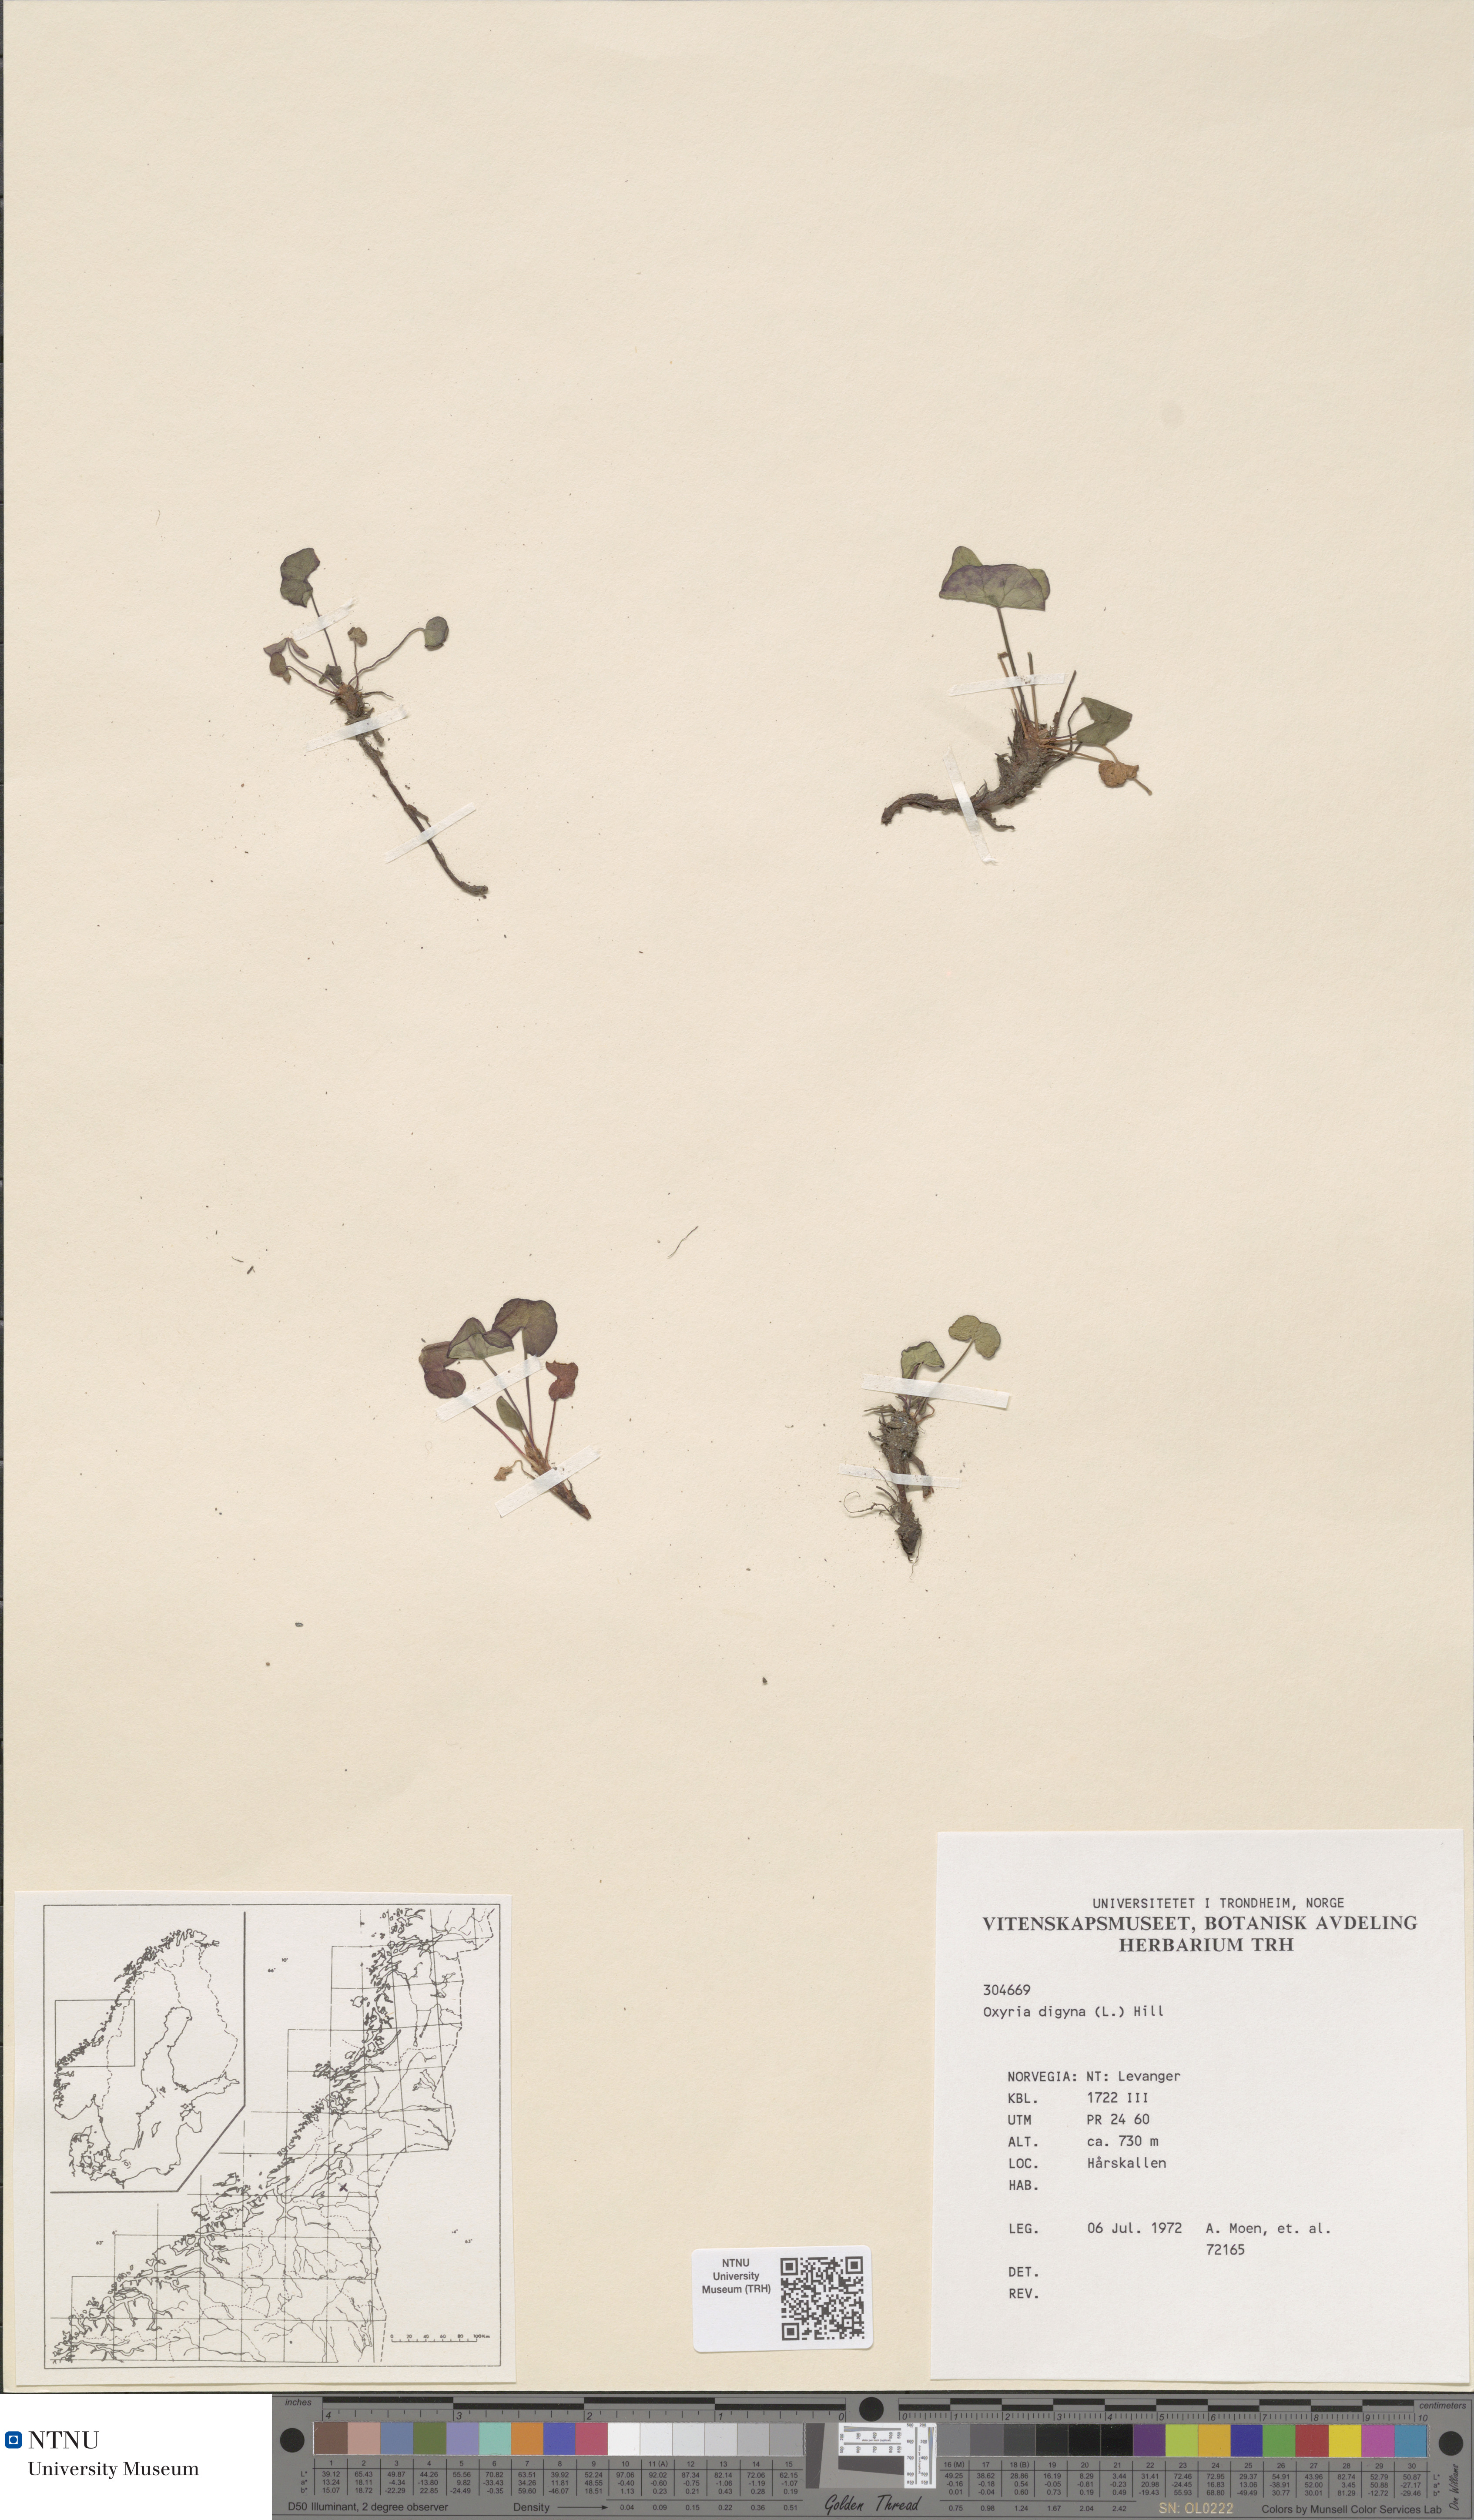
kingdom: Plantae
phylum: Tracheophyta
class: Magnoliopsida
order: Caryophyllales
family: Polygonaceae
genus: Oxyria
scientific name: Oxyria digyna
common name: Alpine mountain-sorrel
